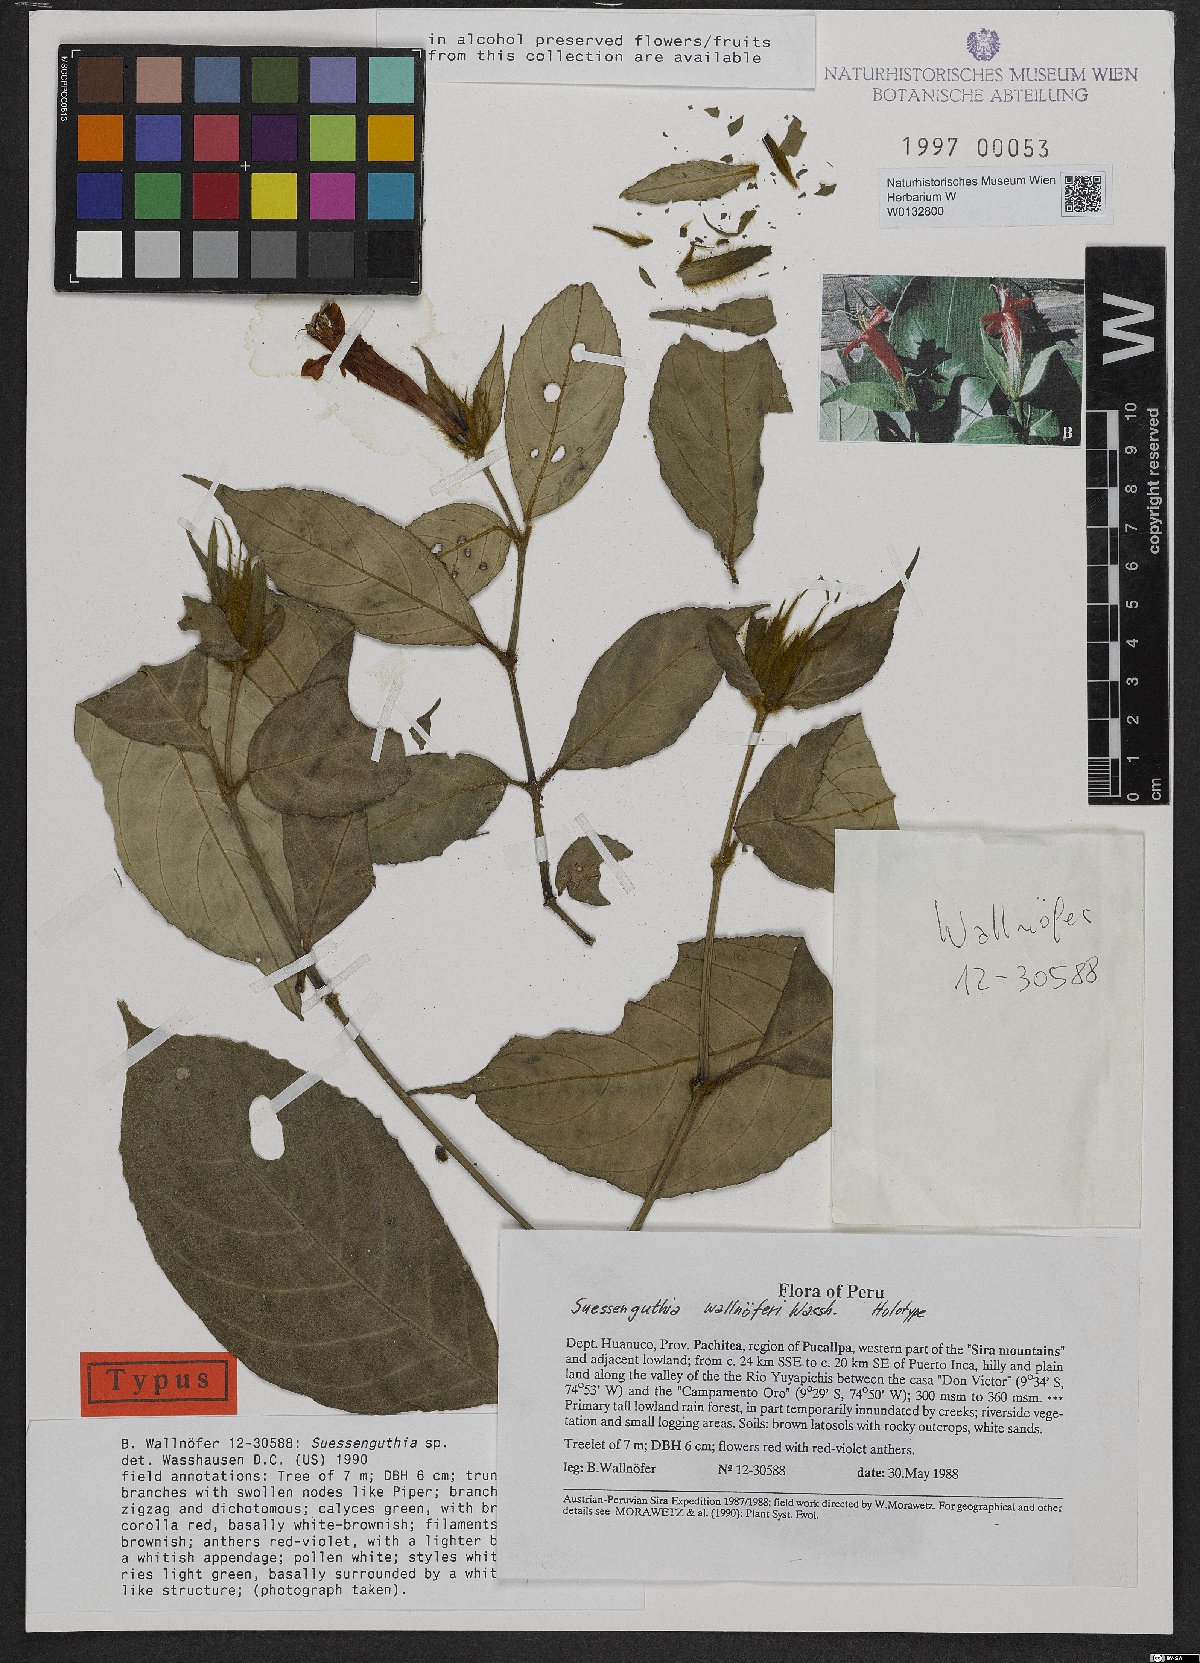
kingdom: Plantae
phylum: Tracheophyta
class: Magnoliopsida
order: Lamiales
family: Acanthaceae
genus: Suessenguthia
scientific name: Suessenguthia wallnoeferi
